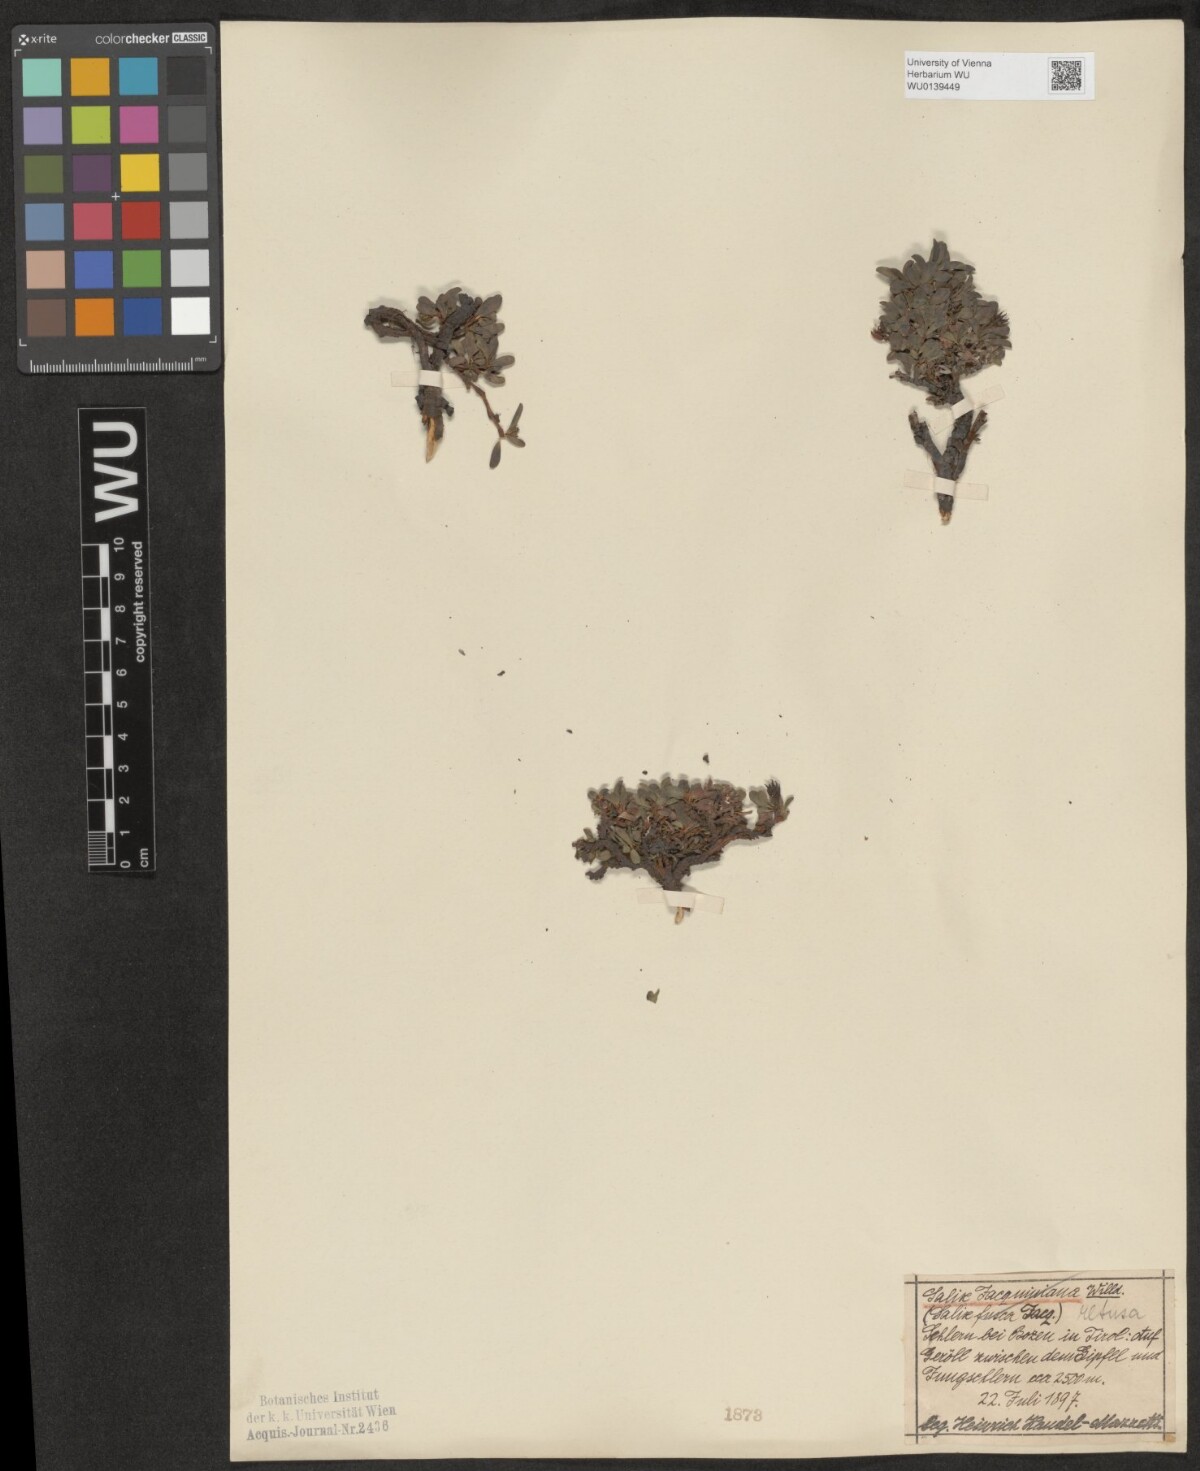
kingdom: Plantae
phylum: Tracheophyta
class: Magnoliopsida
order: Malpighiales
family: Salicaceae
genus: Salix
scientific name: Salix retusa
